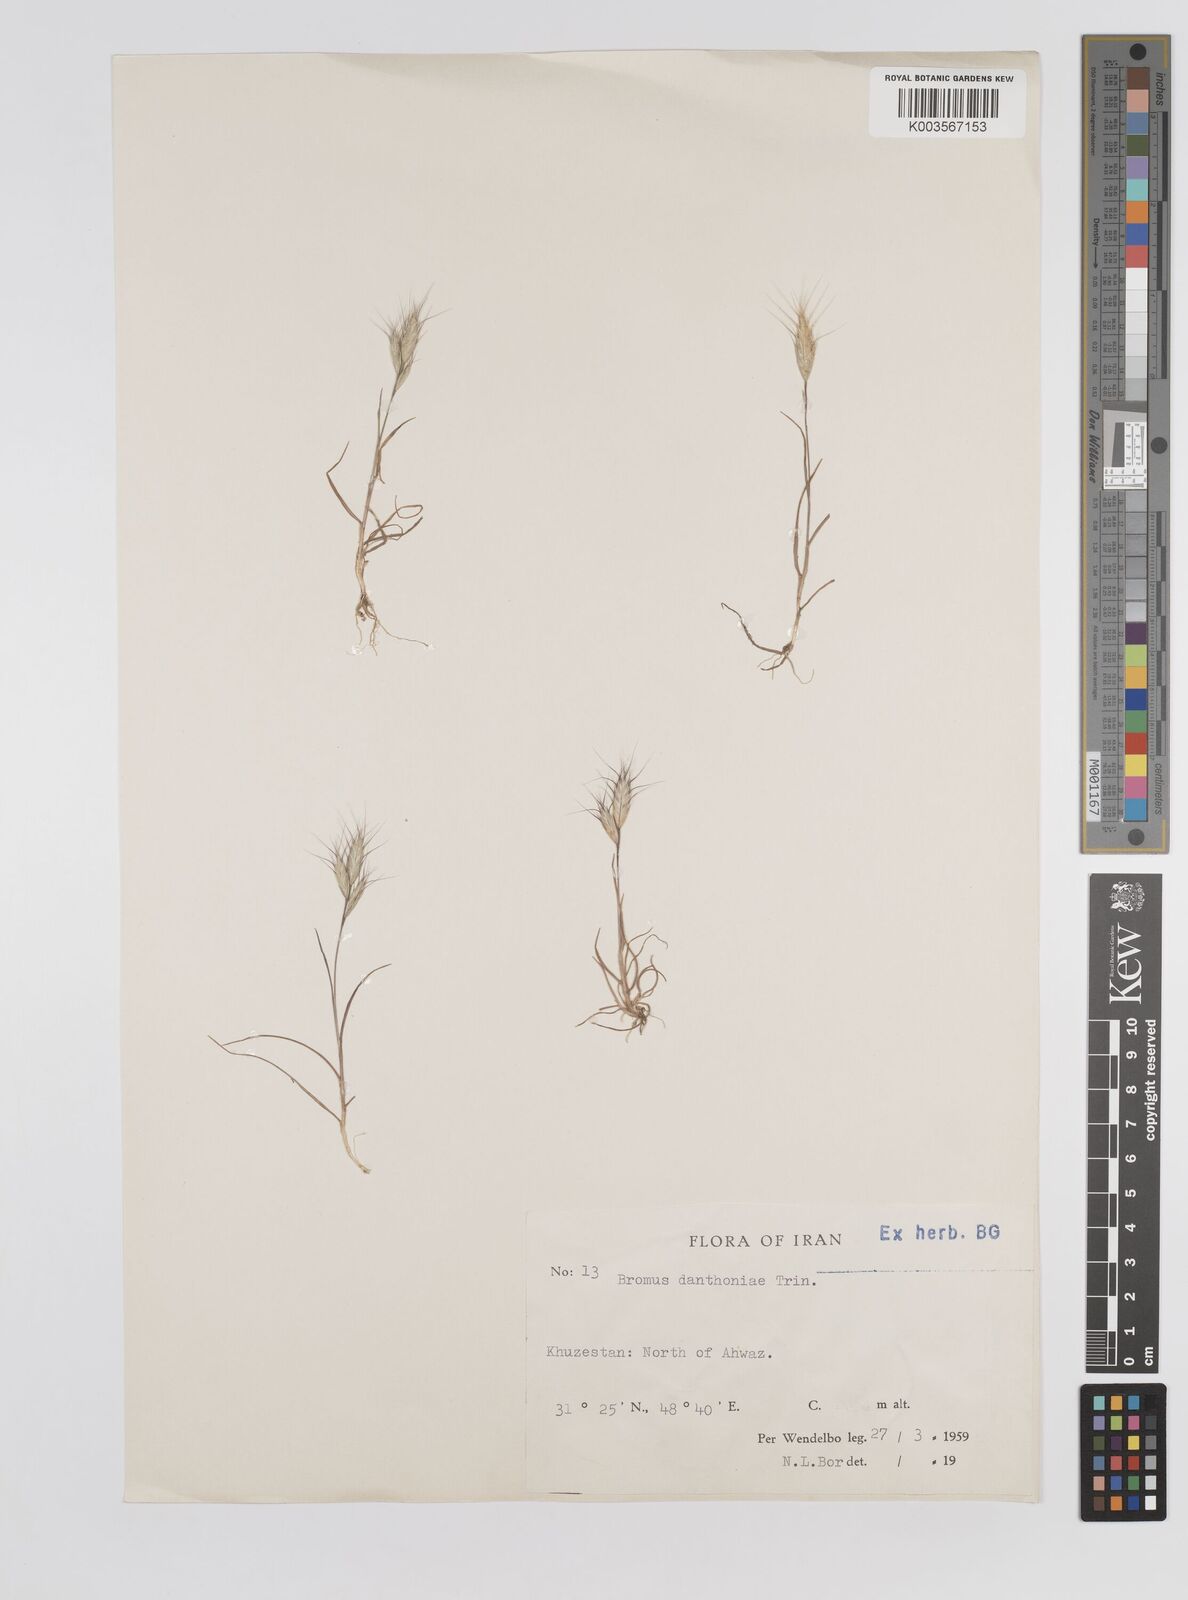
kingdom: Plantae
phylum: Tracheophyta
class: Liliopsida
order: Poales
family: Poaceae
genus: Bromus
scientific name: Bromus danthoniae
